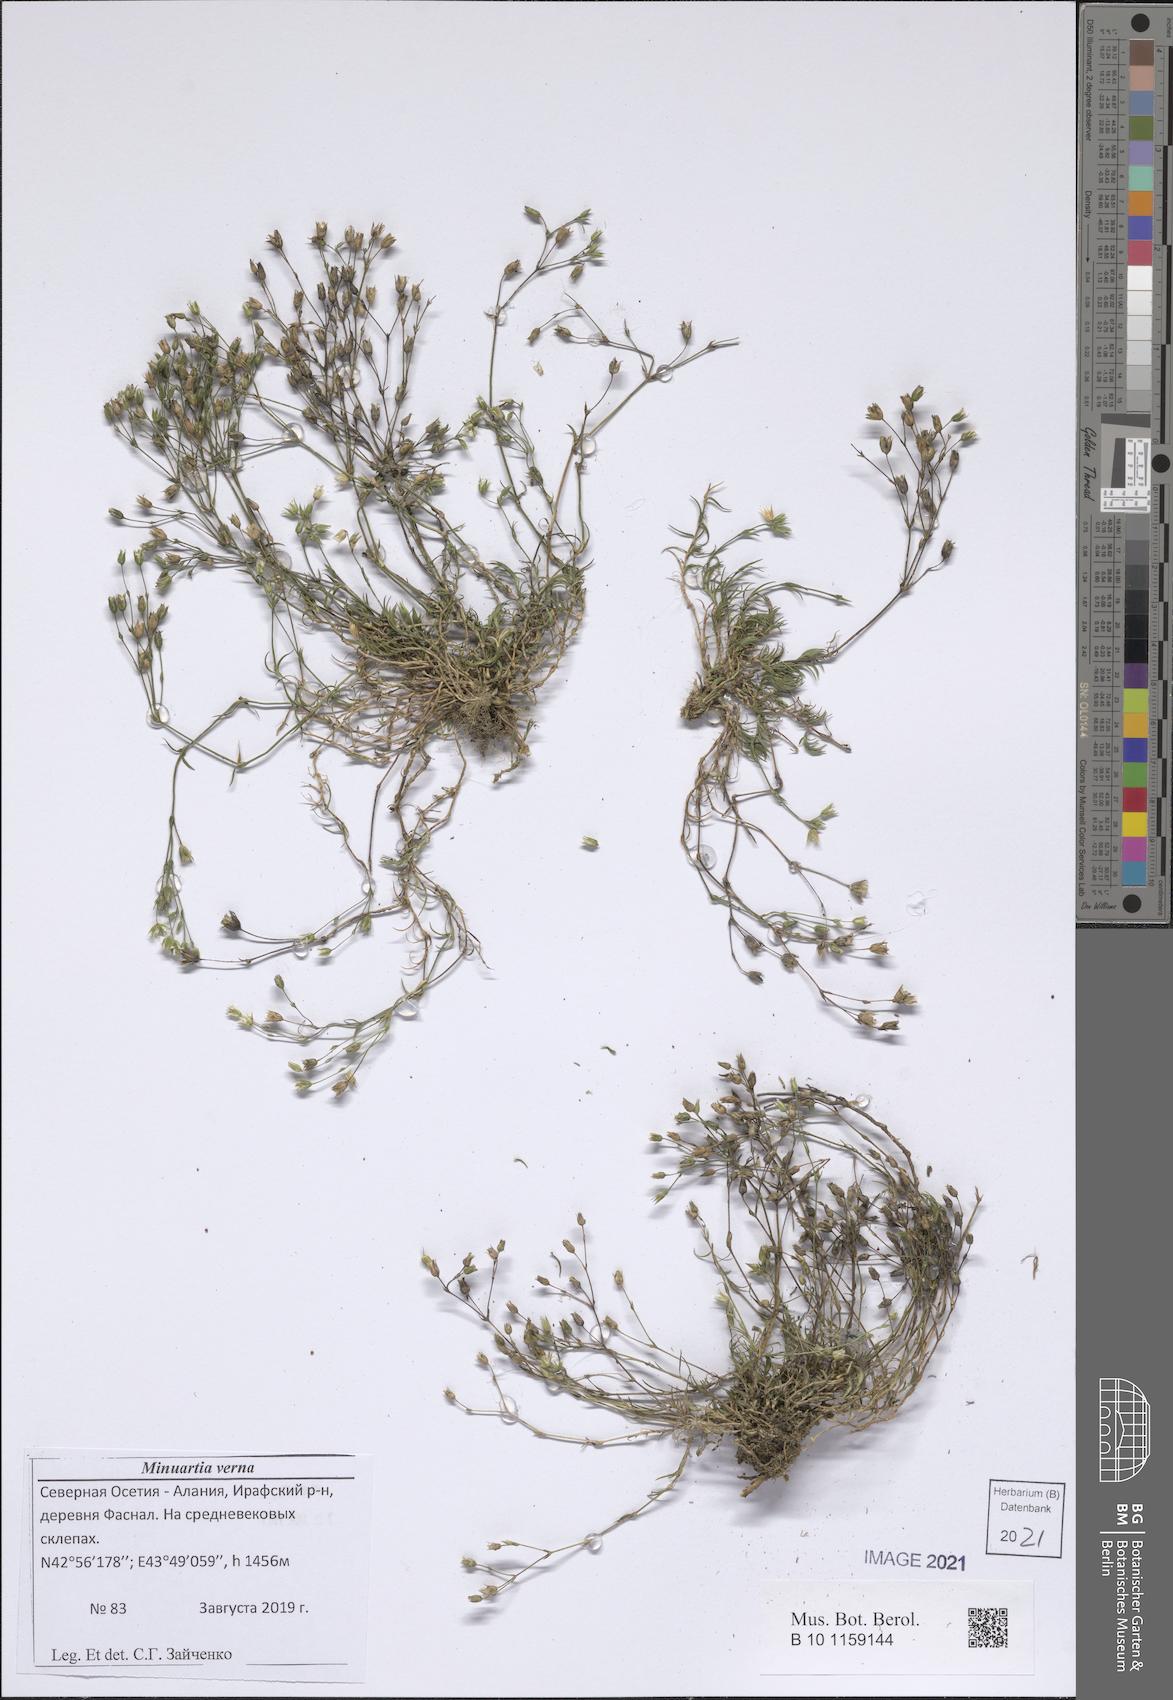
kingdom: Plantae
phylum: Tracheophyta
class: Magnoliopsida
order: Caryophyllales
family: Caryophyllaceae
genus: Sabulina
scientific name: Sabulina verna
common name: Spring sandwort
